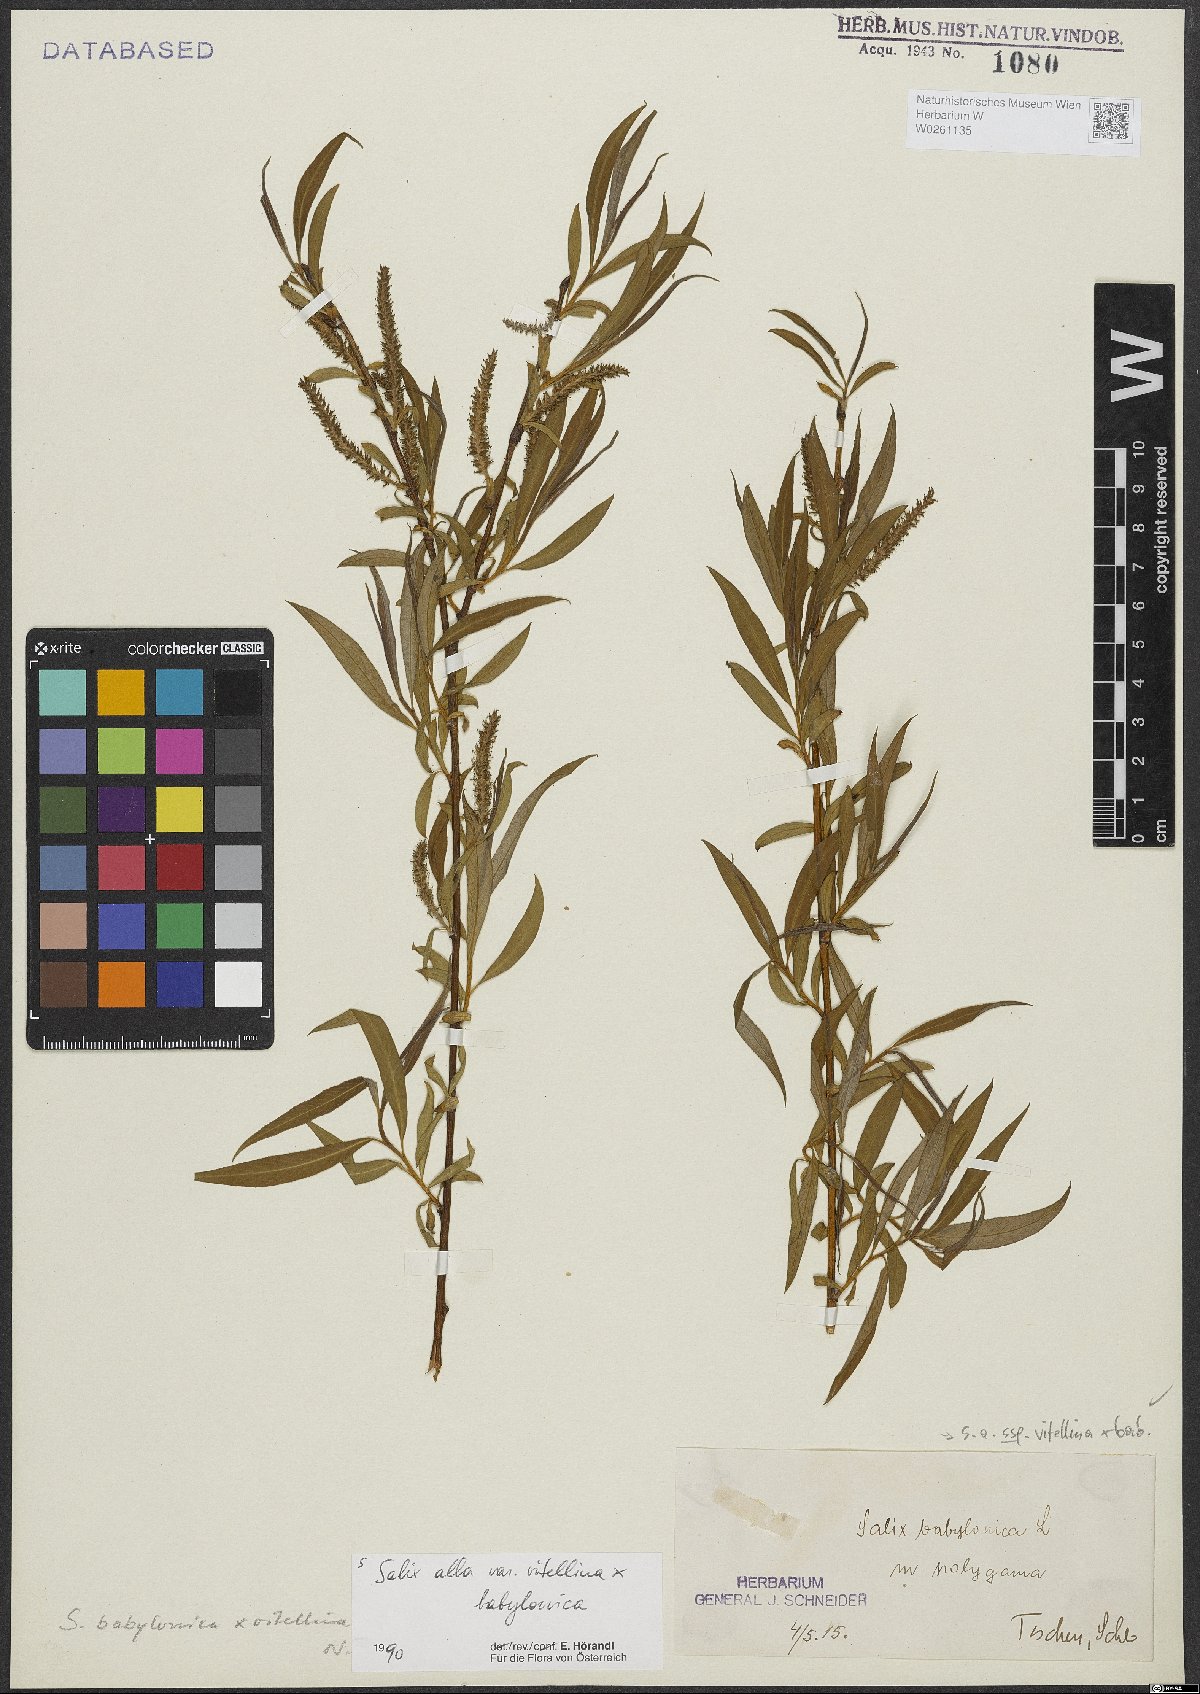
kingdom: Plantae
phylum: Tracheophyta
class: Magnoliopsida
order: Malpighiales
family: Salicaceae
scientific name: Salicaceae
